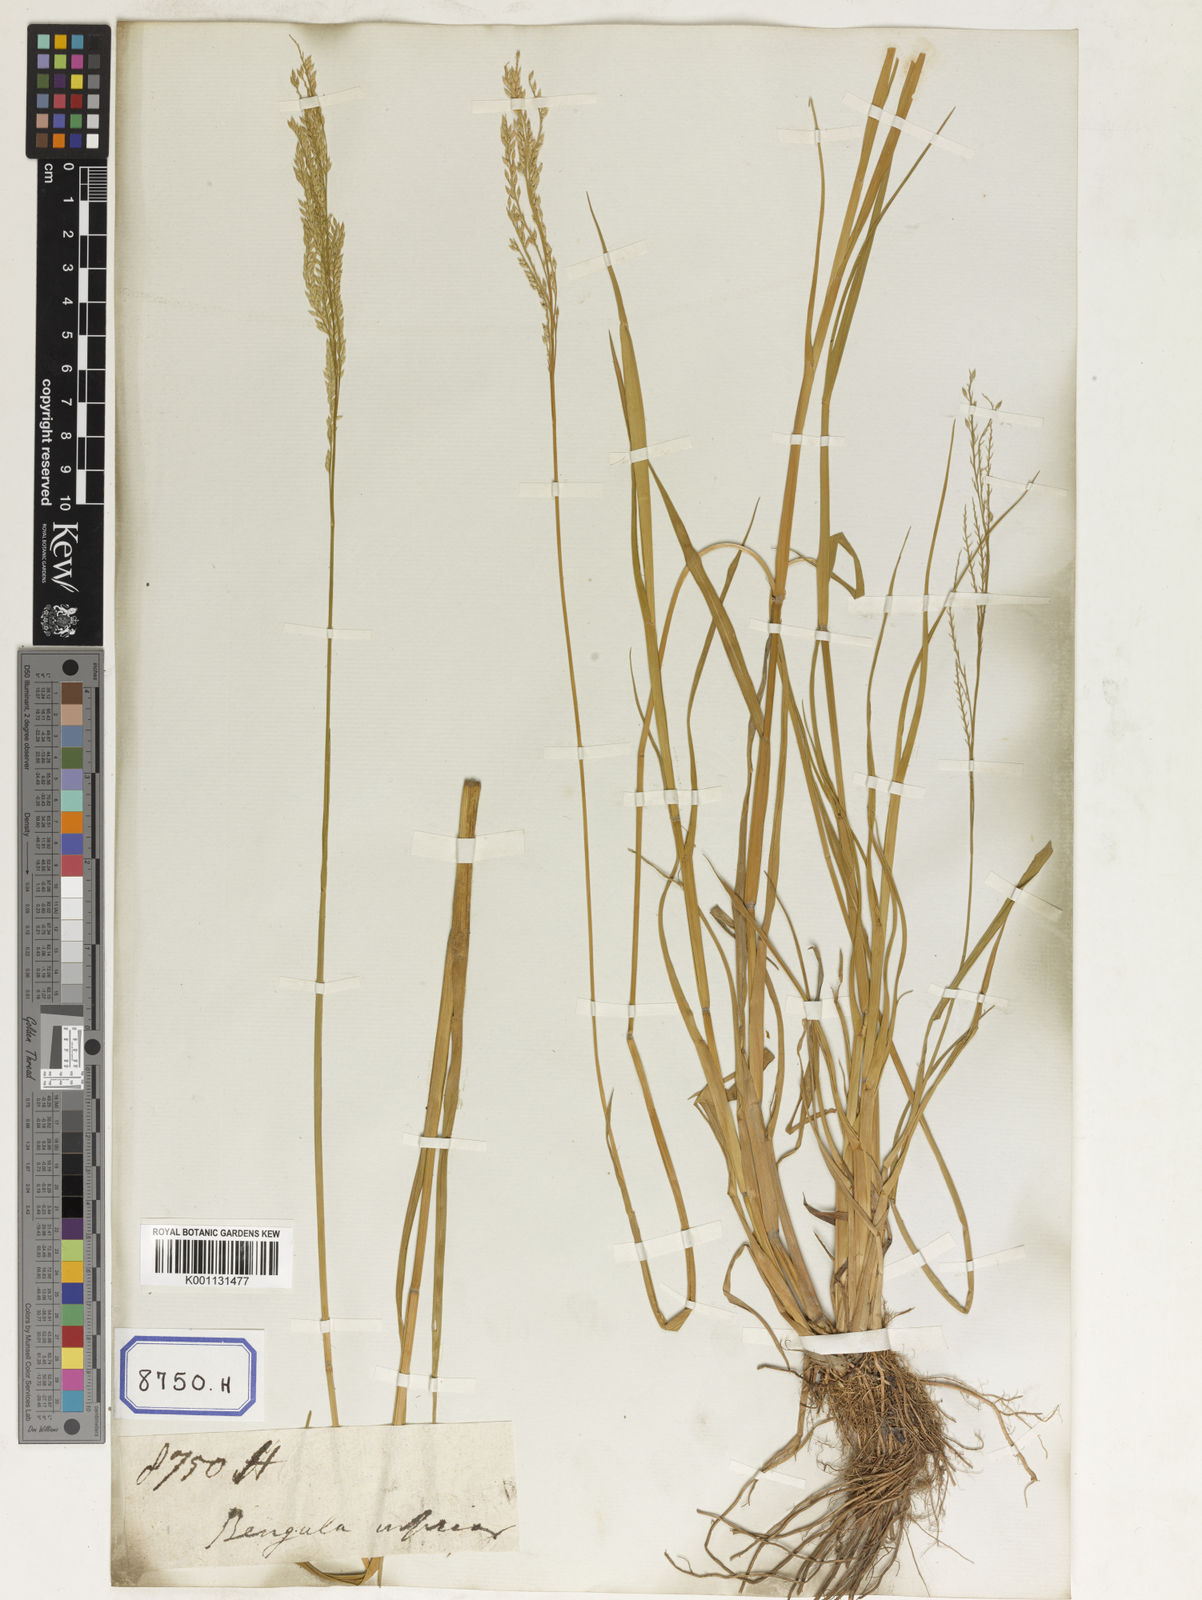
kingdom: Plantae
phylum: Tracheophyta
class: Liliopsida
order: Poales
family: Poaceae
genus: Eriochloa
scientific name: Eriochloa procera
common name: Spring grass
